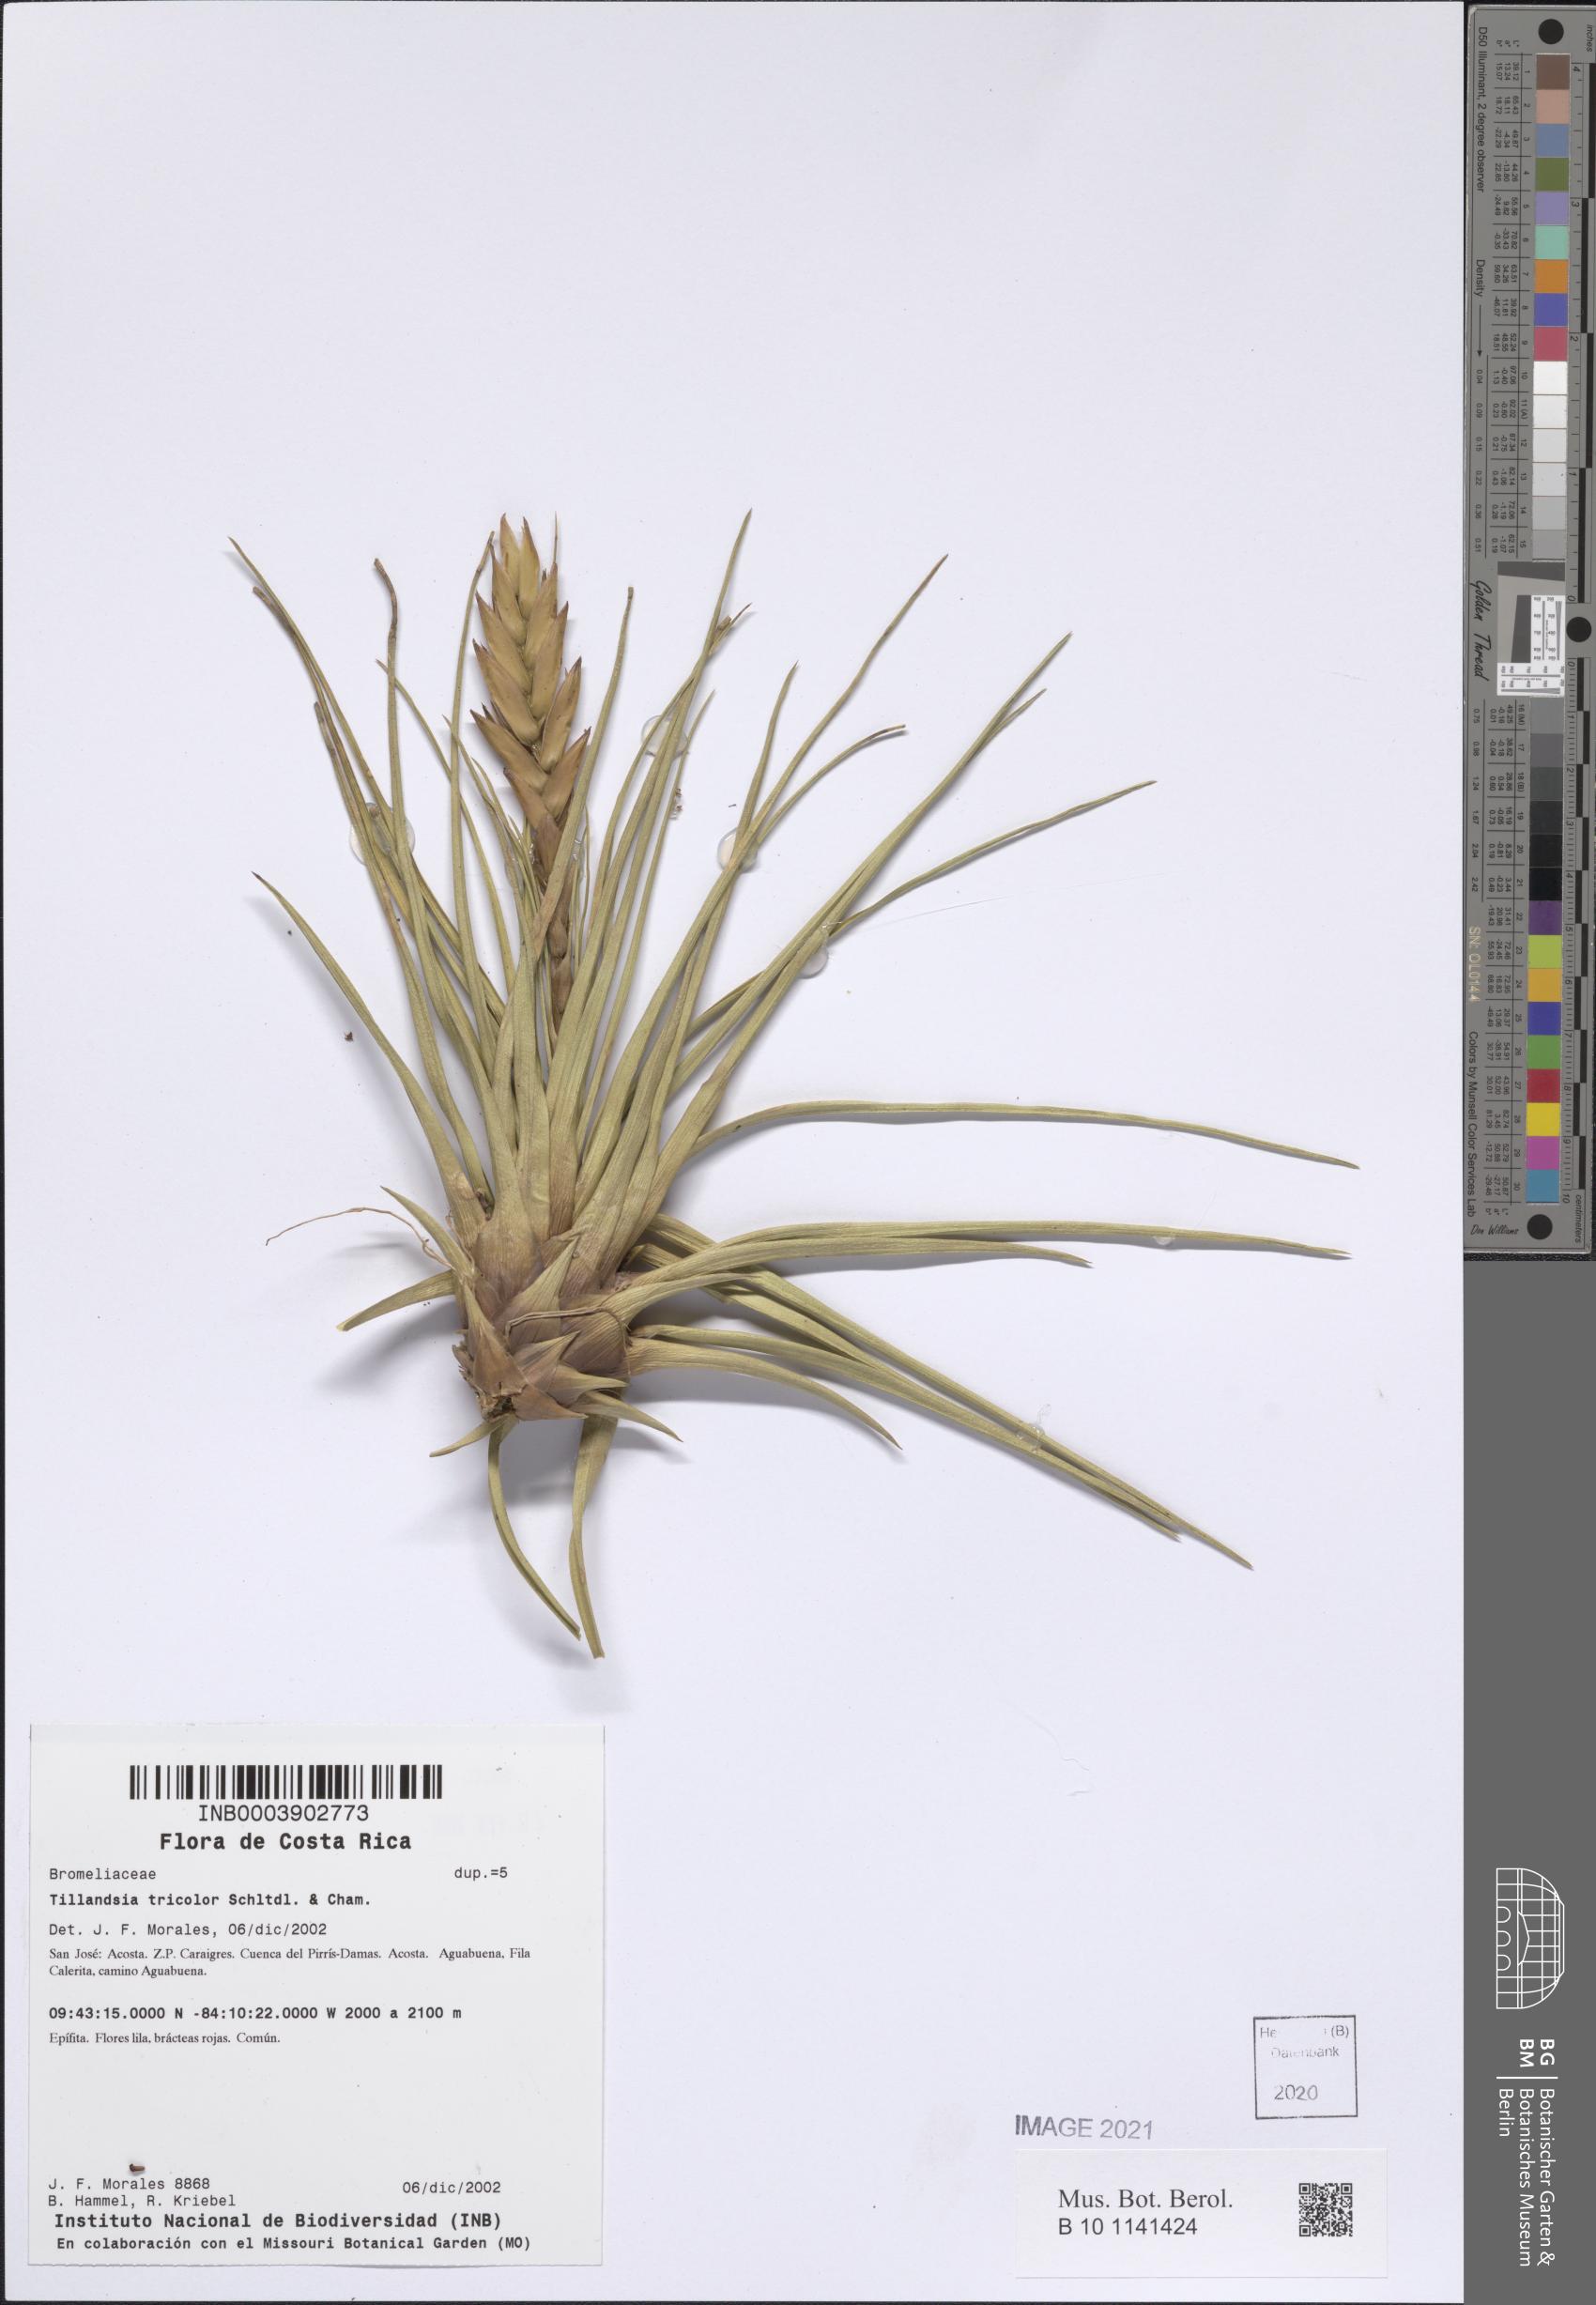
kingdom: Plantae
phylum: Tracheophyta
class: Liliopsida
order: Poales
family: Bromeliaceae
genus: Tillandsia
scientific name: Tillandsia tricolor
